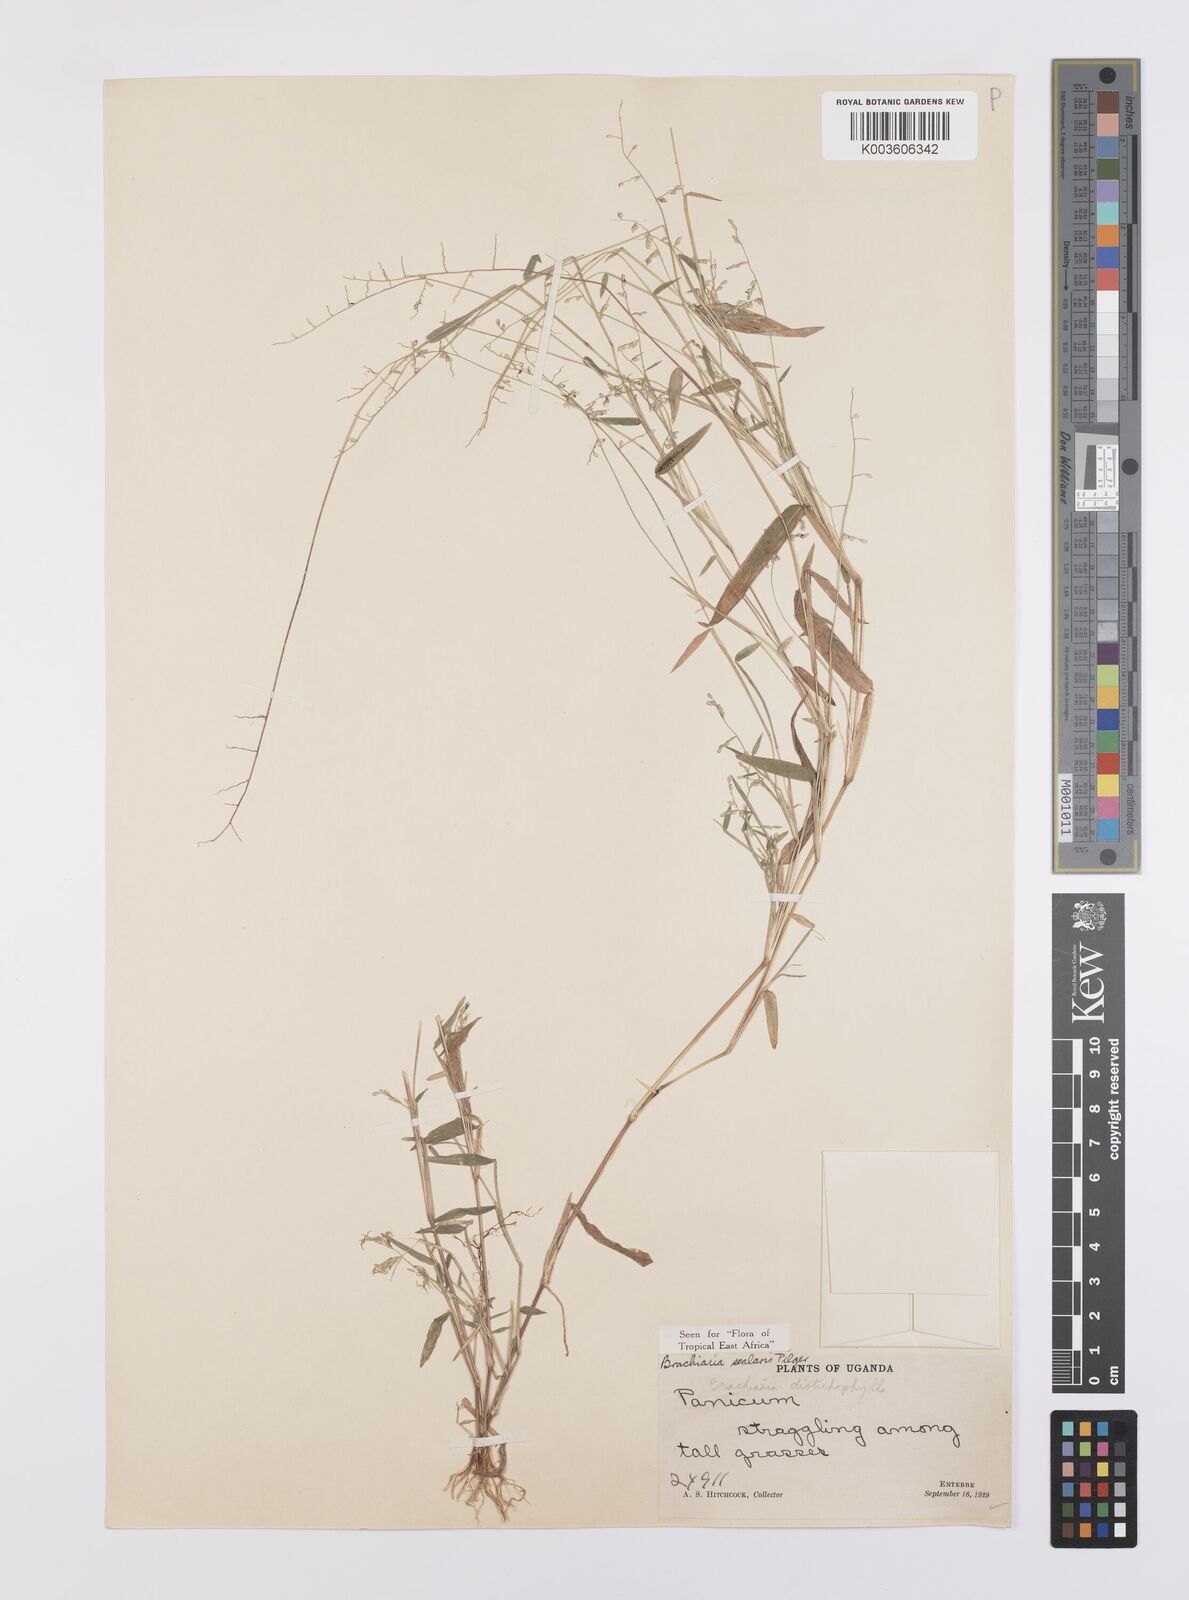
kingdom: Plantae
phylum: Tracheophyta
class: Liliopsida
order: Poales
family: Poaceae
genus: Urochloa
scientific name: Urochloa comata
